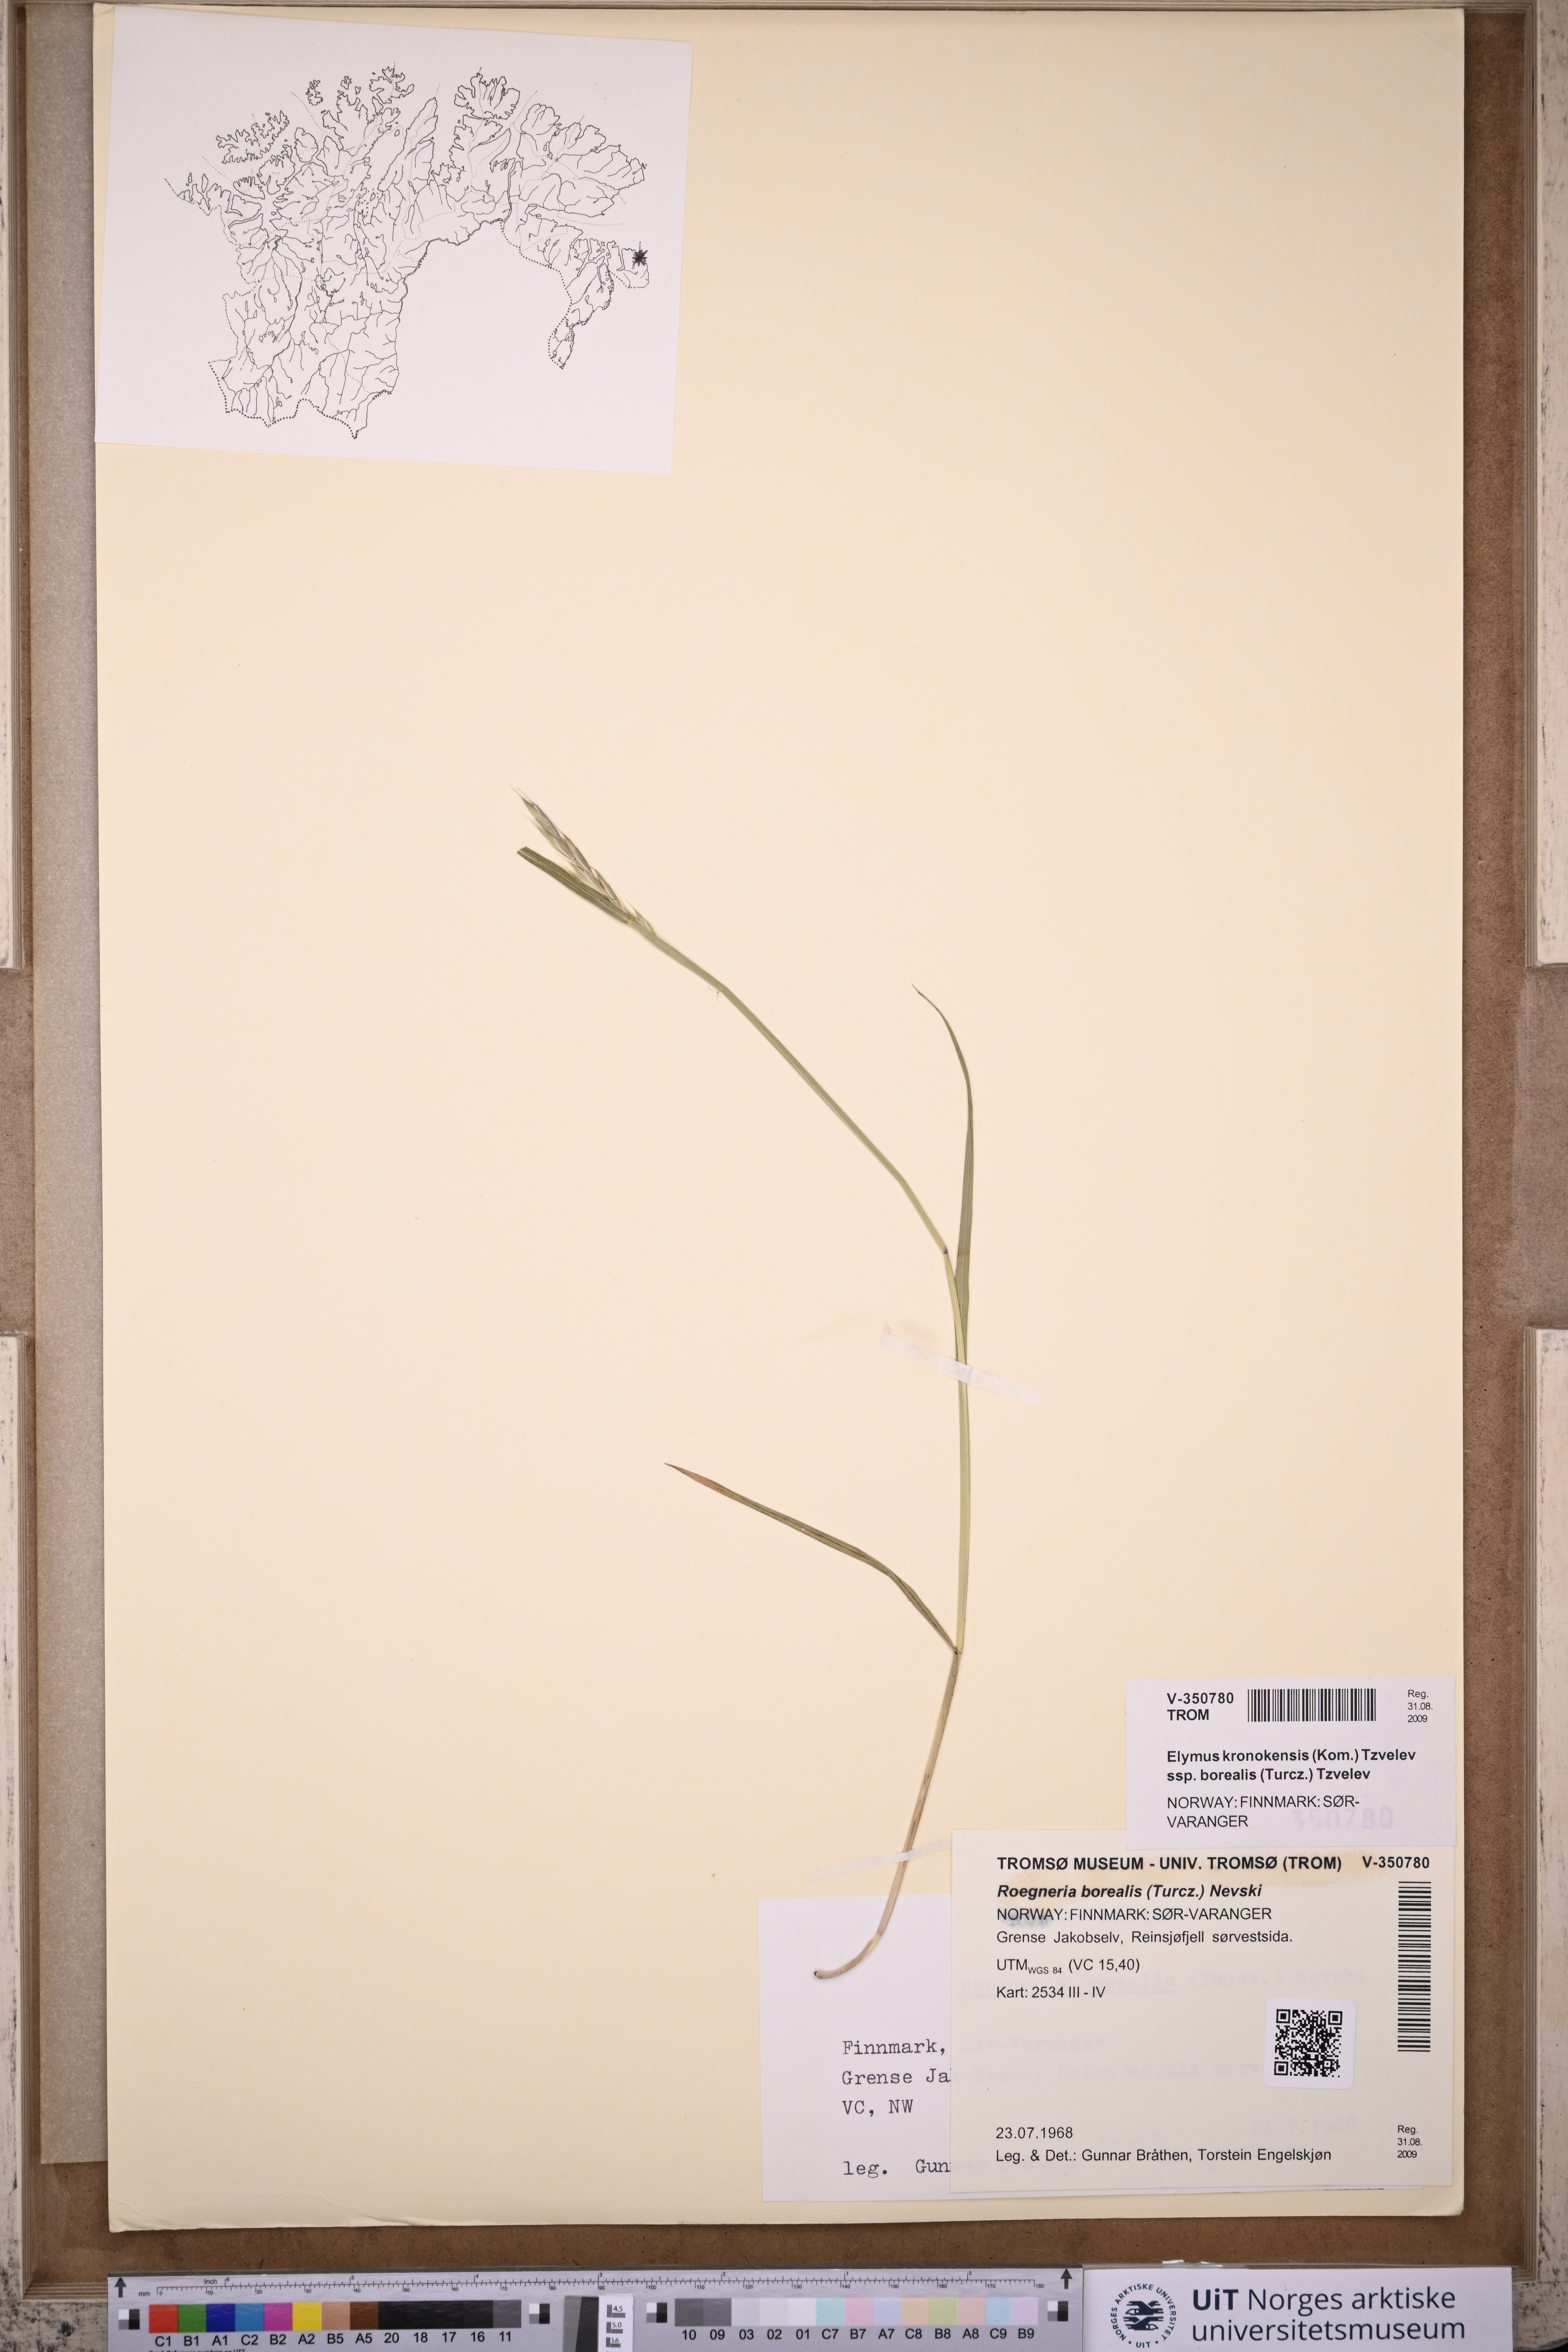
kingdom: Plantae
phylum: Tracheophyta
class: Liliopsida
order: Poales
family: Poaceae
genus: Elymus
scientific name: Elymus macrourus
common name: Northern wheatgrass
